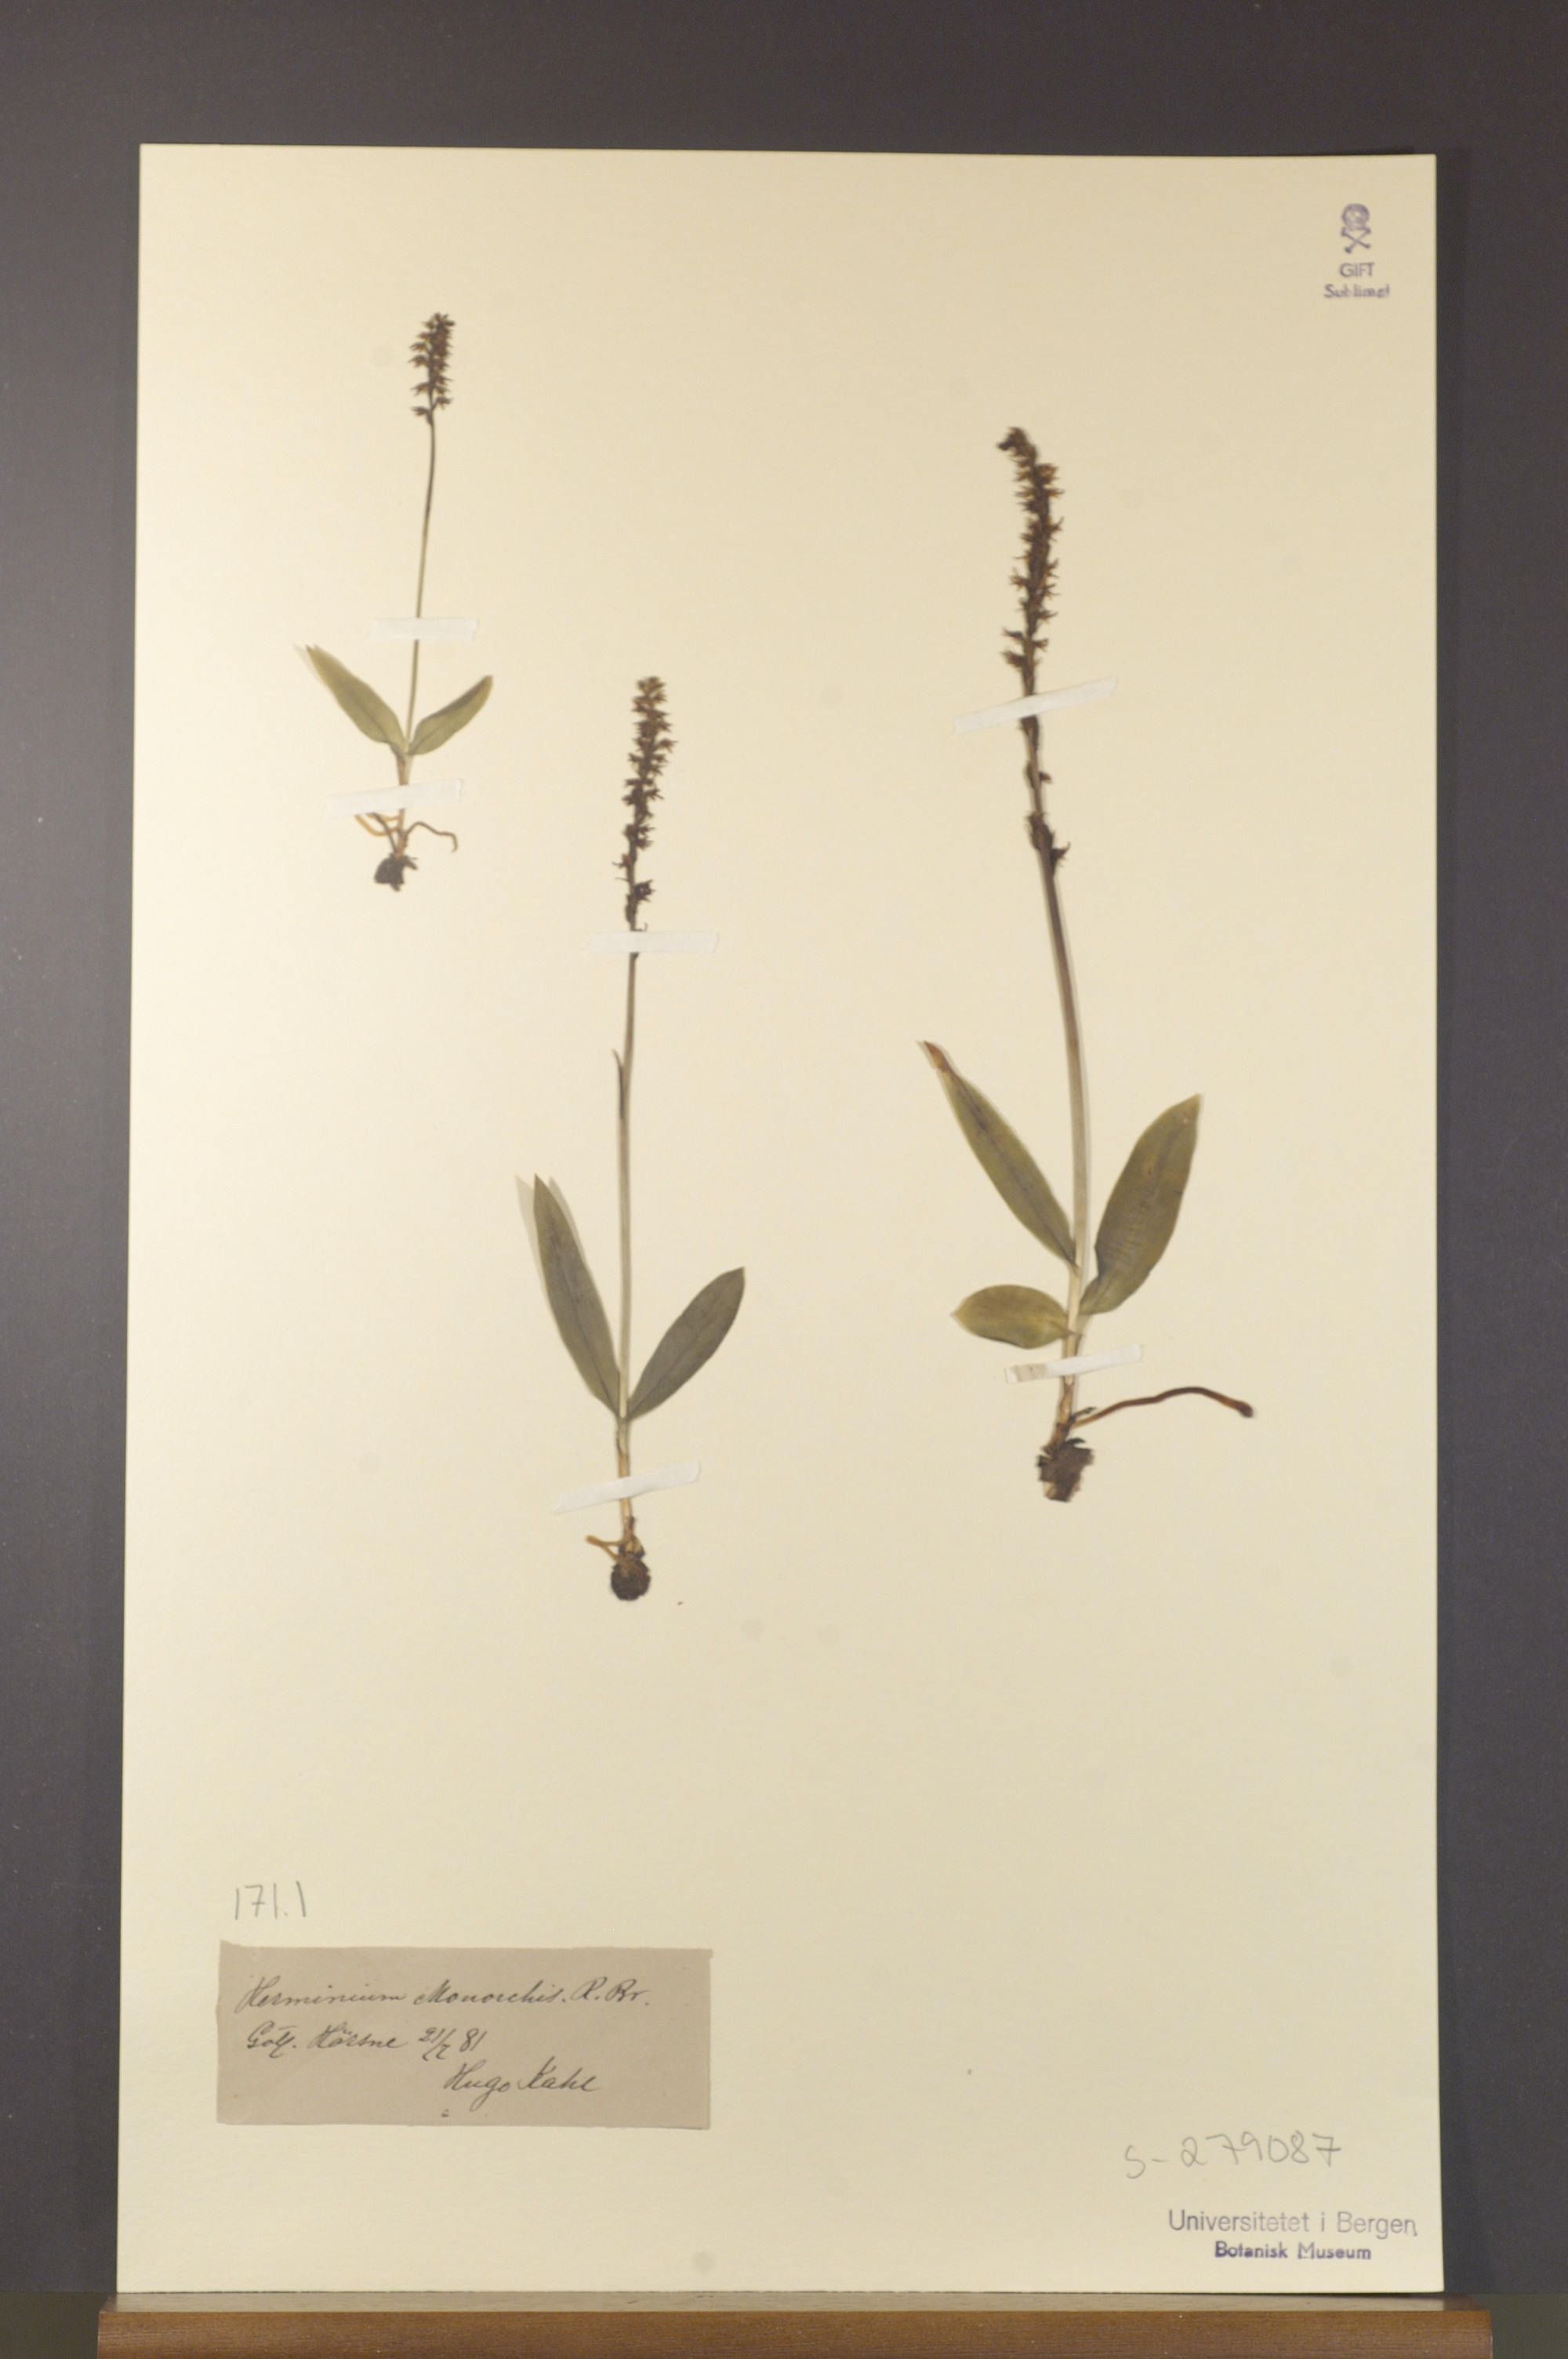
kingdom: Plantae
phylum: Tracheophyta
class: Liliopsida
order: Asparagales
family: Orchidaceae
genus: Herminium
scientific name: Herminium monorchis
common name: Musk orchid
